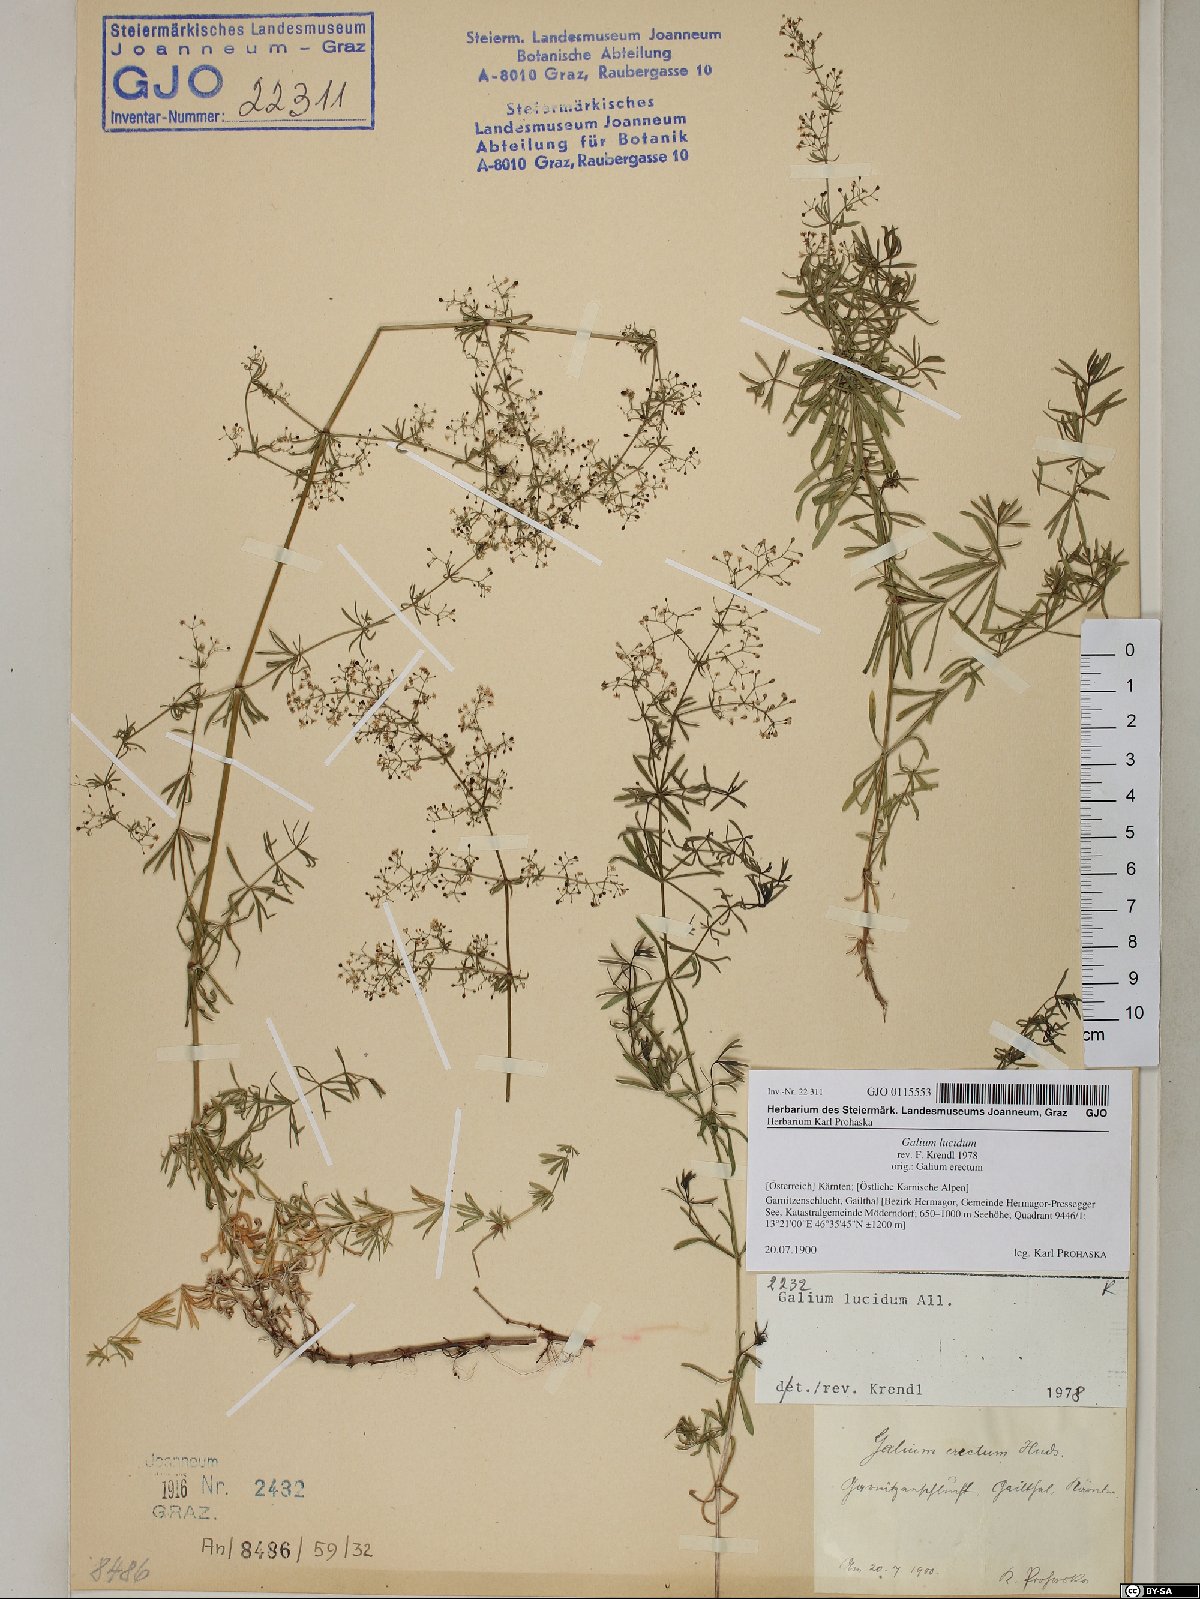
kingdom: Plantae
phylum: Tracheophyta
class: Magnoliopsida
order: Gentianales
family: Rubiaceae
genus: Galium
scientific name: Galium lucidum
